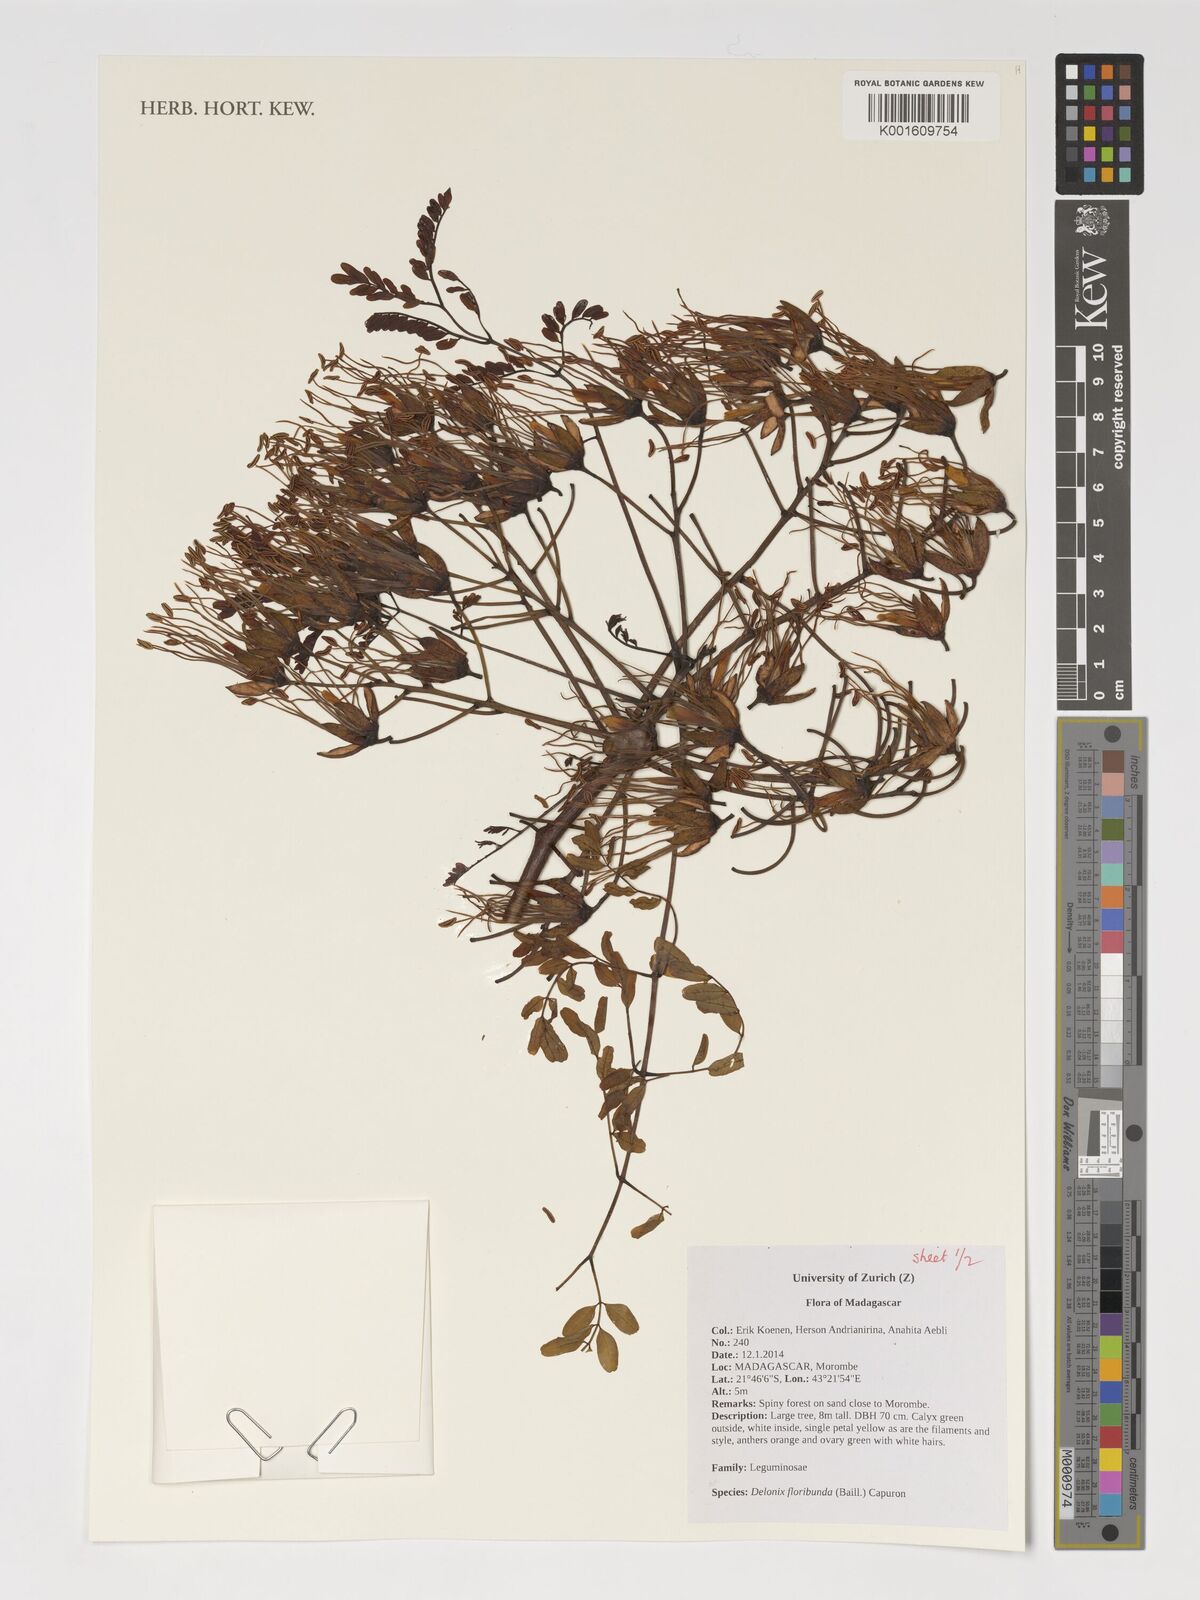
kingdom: Plantae
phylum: Tracheophyta
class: Magnoliopsida
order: Fabales
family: Fabaceae
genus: Delonix
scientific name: Delonix floribunda
